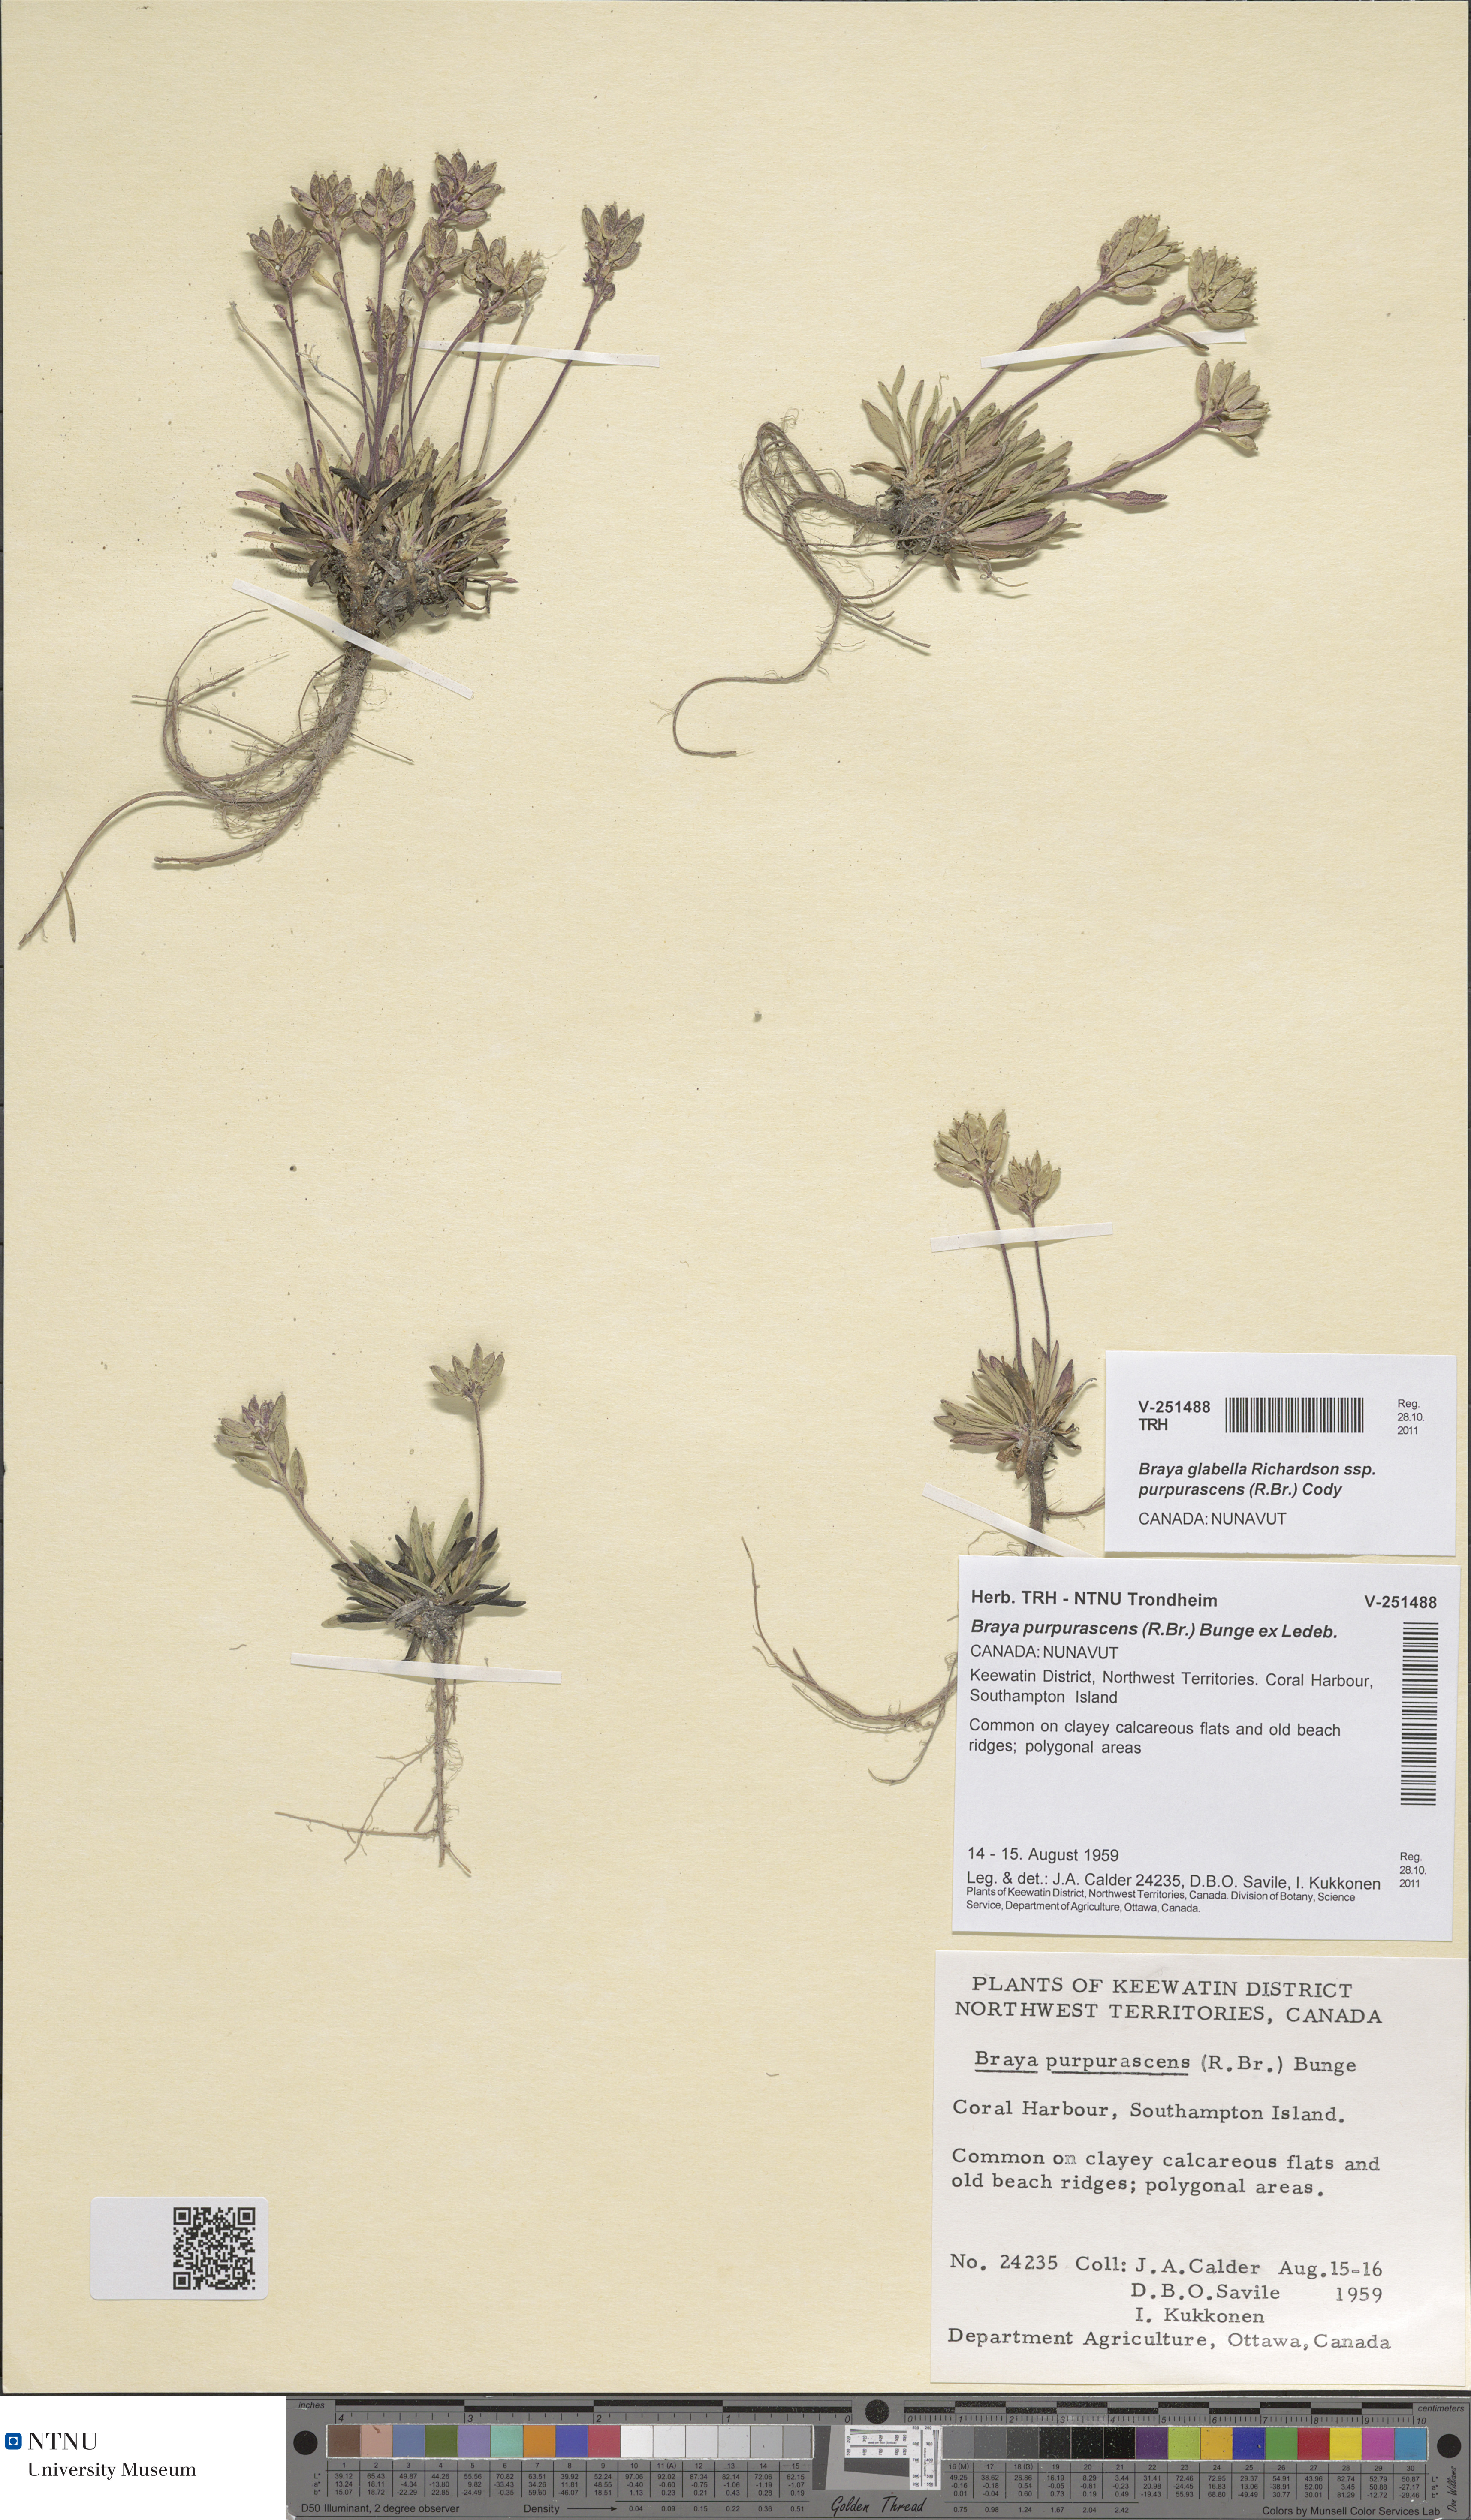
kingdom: Plantae
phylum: Tracheophyta
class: Magnoliopsida
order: Brassicales
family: Brassicaceae
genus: Braya
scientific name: Braya purpurascens
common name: Alpine braya
